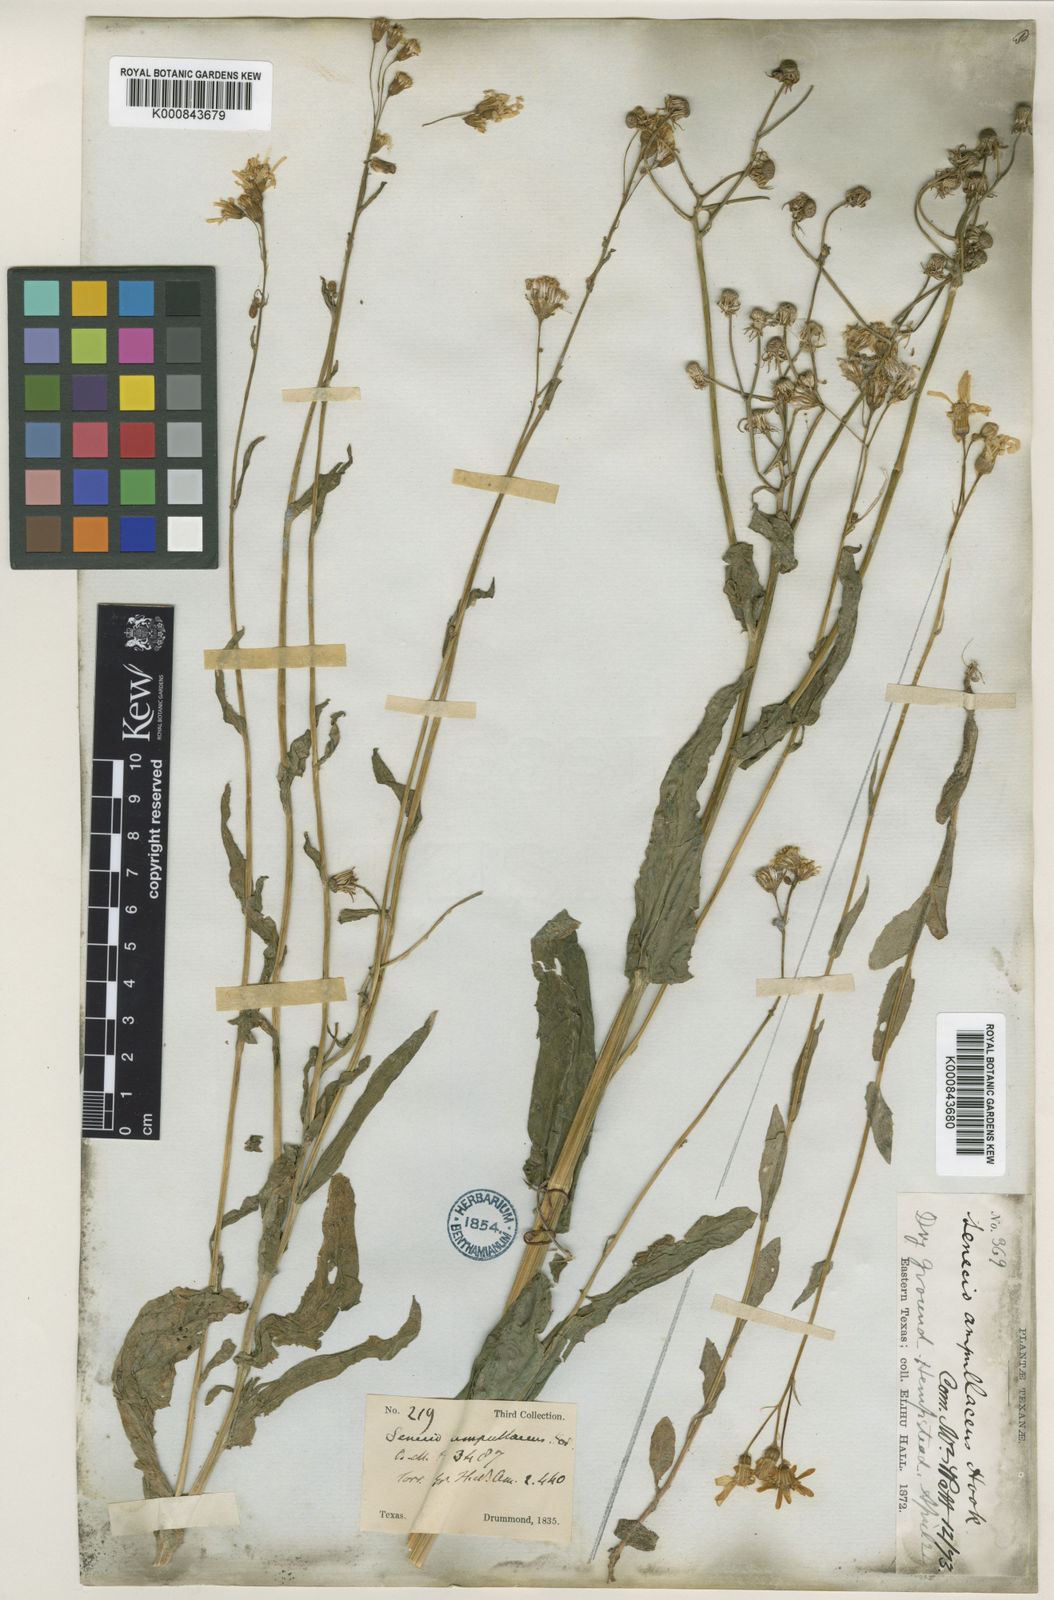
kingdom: Plantae
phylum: Tracheophyta
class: Magnoliopsida
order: Asterales
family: Asteraceae
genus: Senecio
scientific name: Senecio ampullaceus
